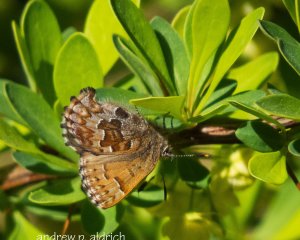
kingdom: Animalia
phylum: Arthropoda
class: Insecta
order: Lepidoptera
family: Lycaenidae
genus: Incisalia
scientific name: Incisalia niphon
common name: Eastern Pine Elfin
